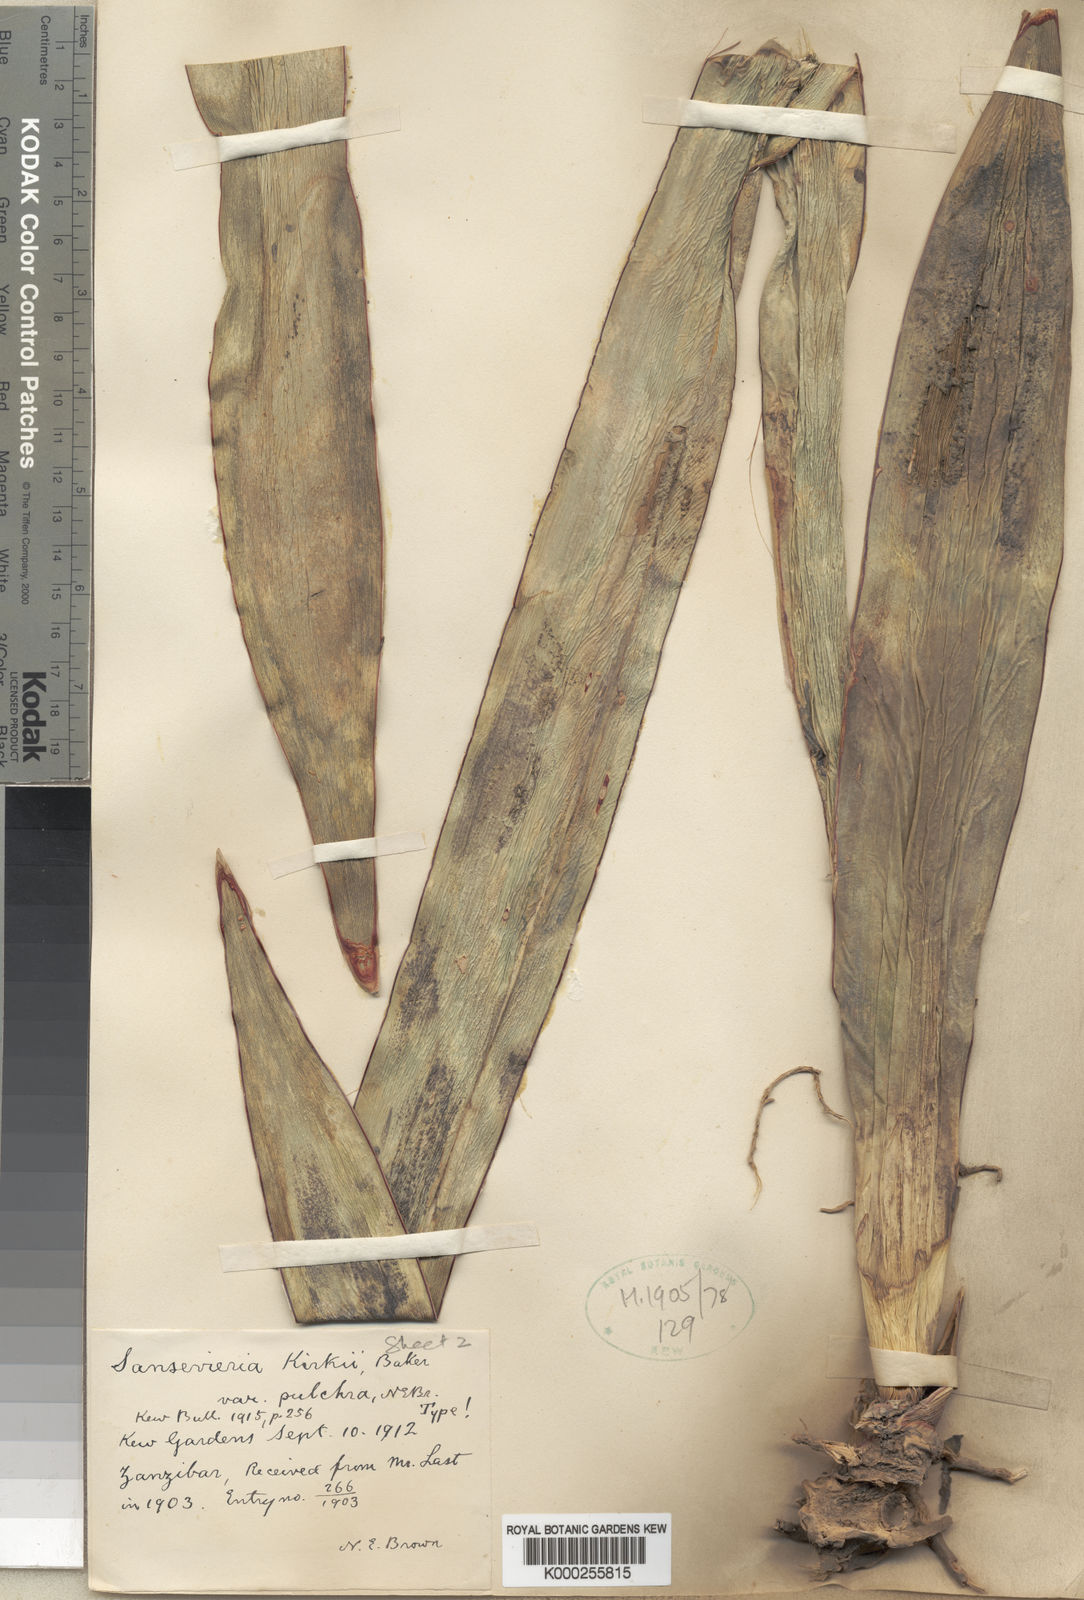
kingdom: Plantae
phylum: Tracheophyta
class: Liliopsida
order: Asparagales
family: Asparagaceae
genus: Dracaena
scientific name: Dracaena pethera
